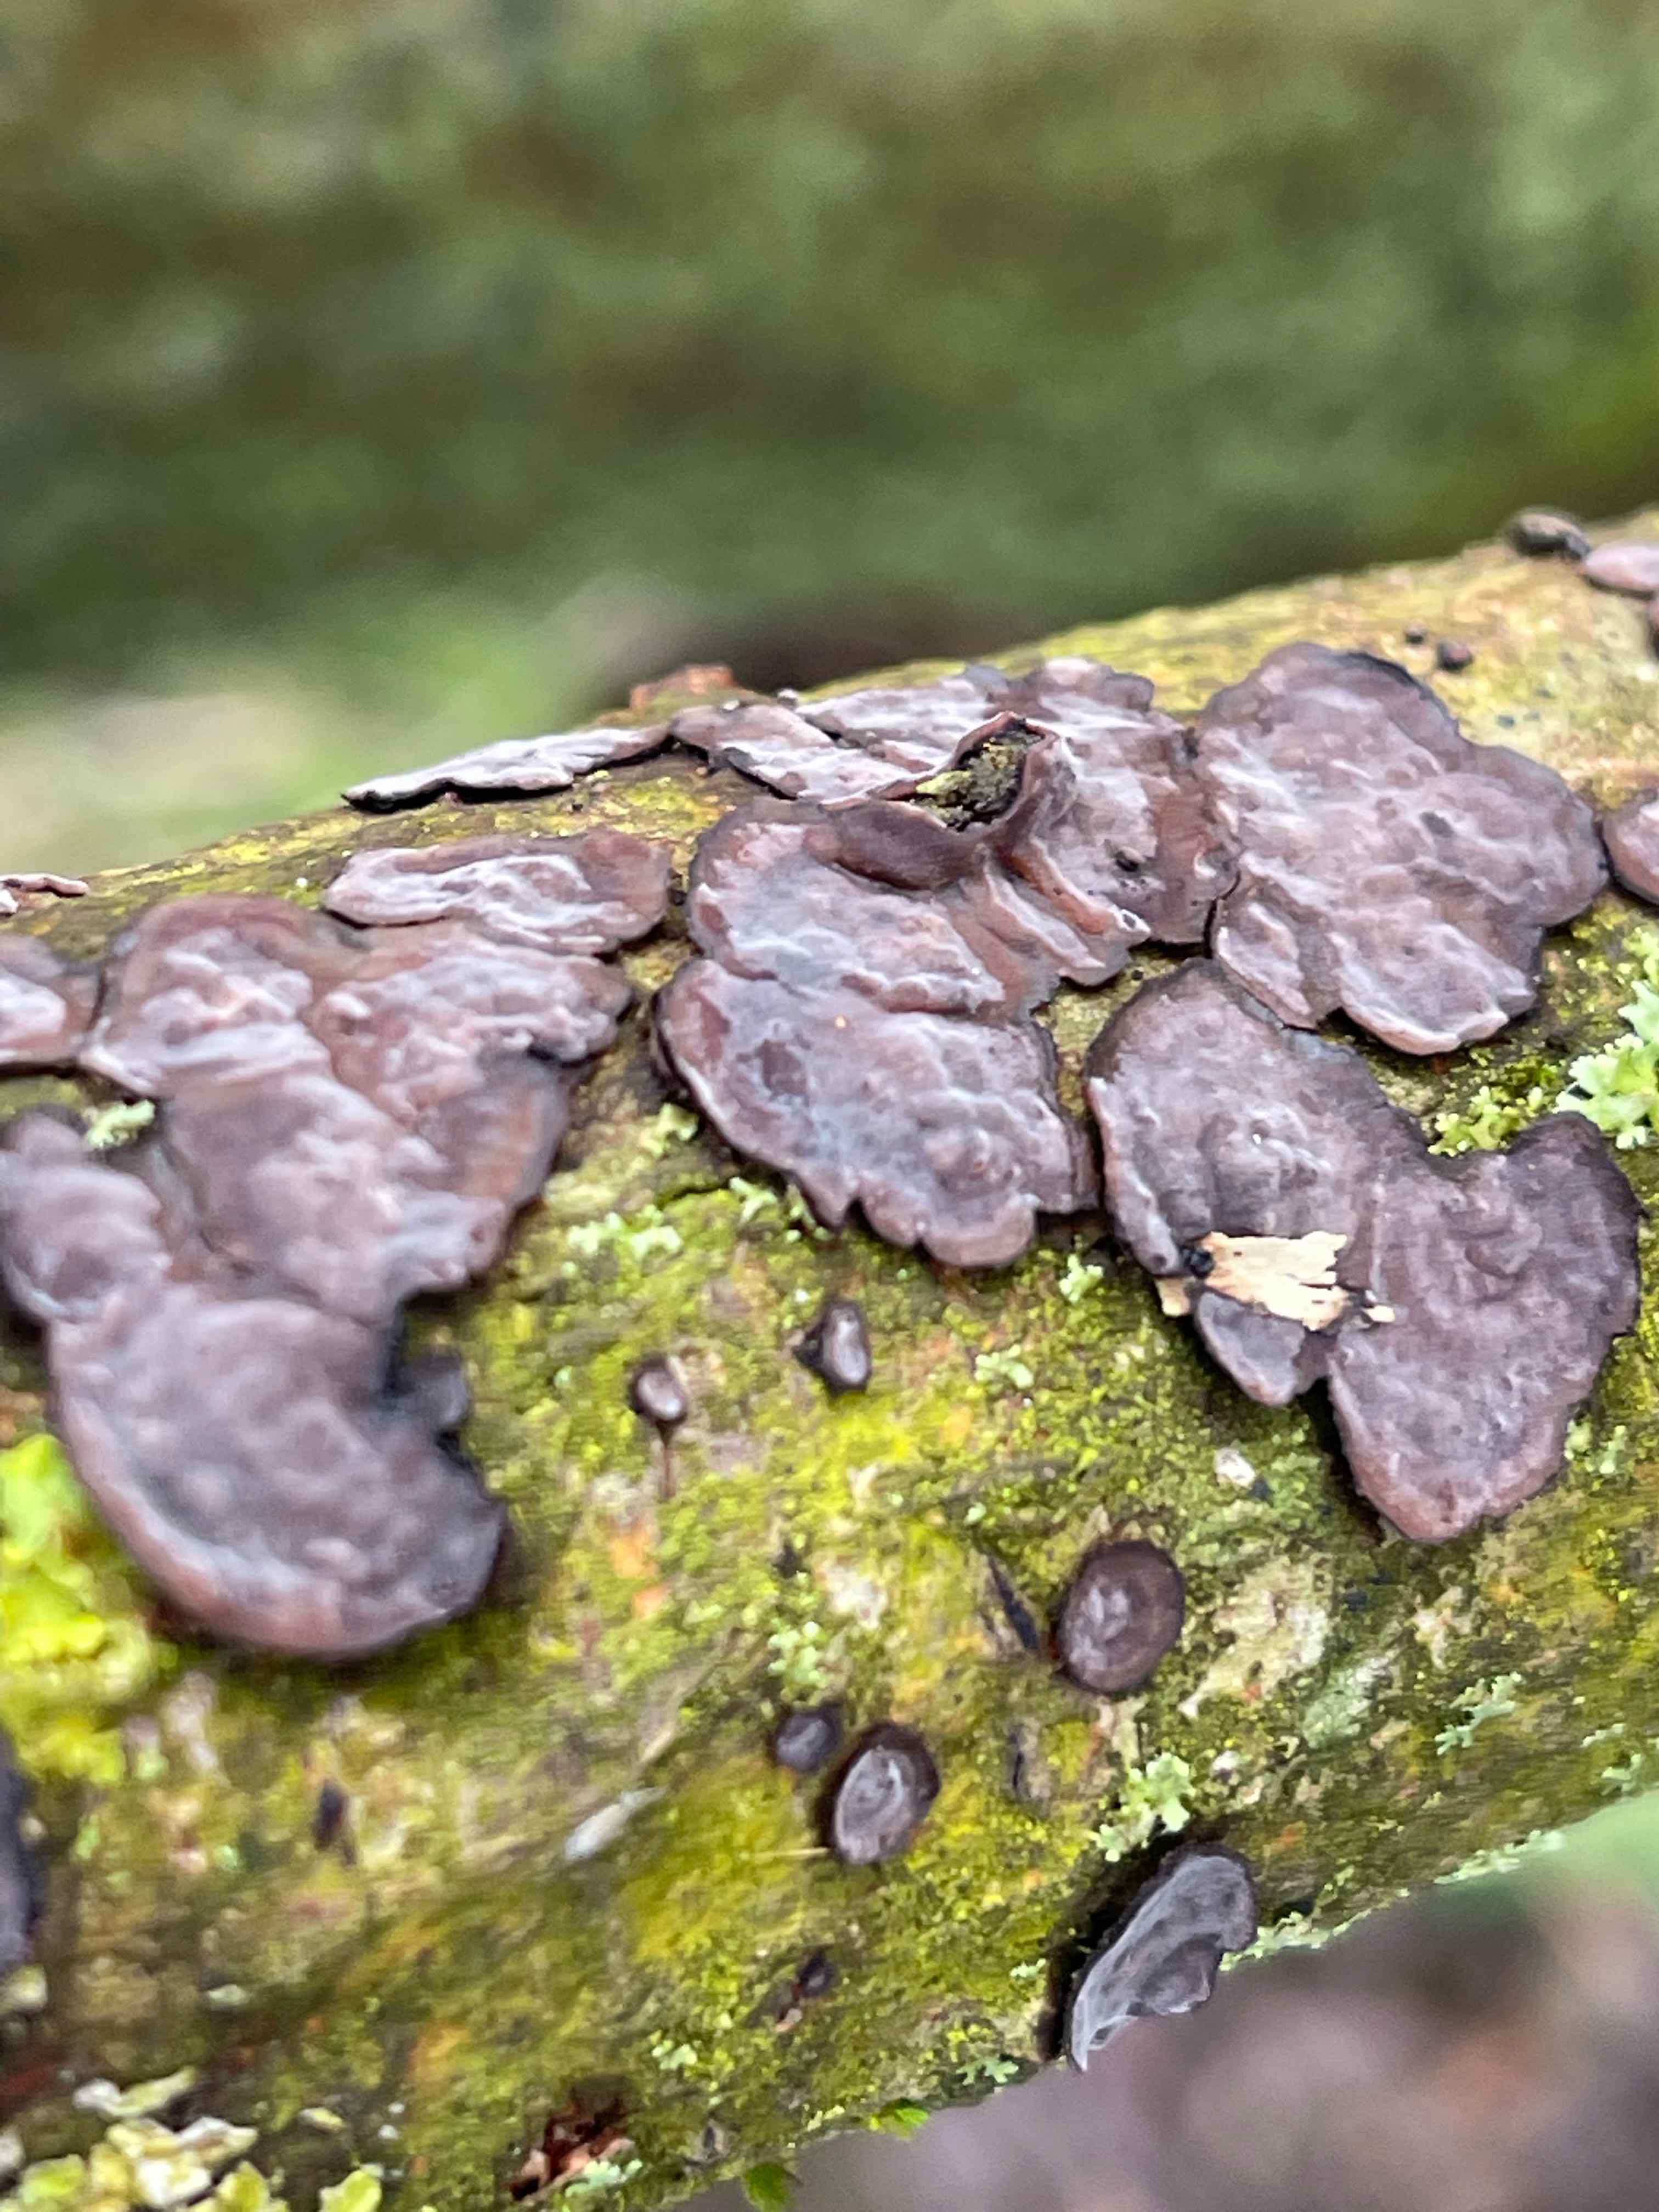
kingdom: Fungi
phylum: Basidiomycota
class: Agaricomycetes
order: Russulales
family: Peniophoraceae
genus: Peniophora
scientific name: Peniophora quercina
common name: ege-voksskind
